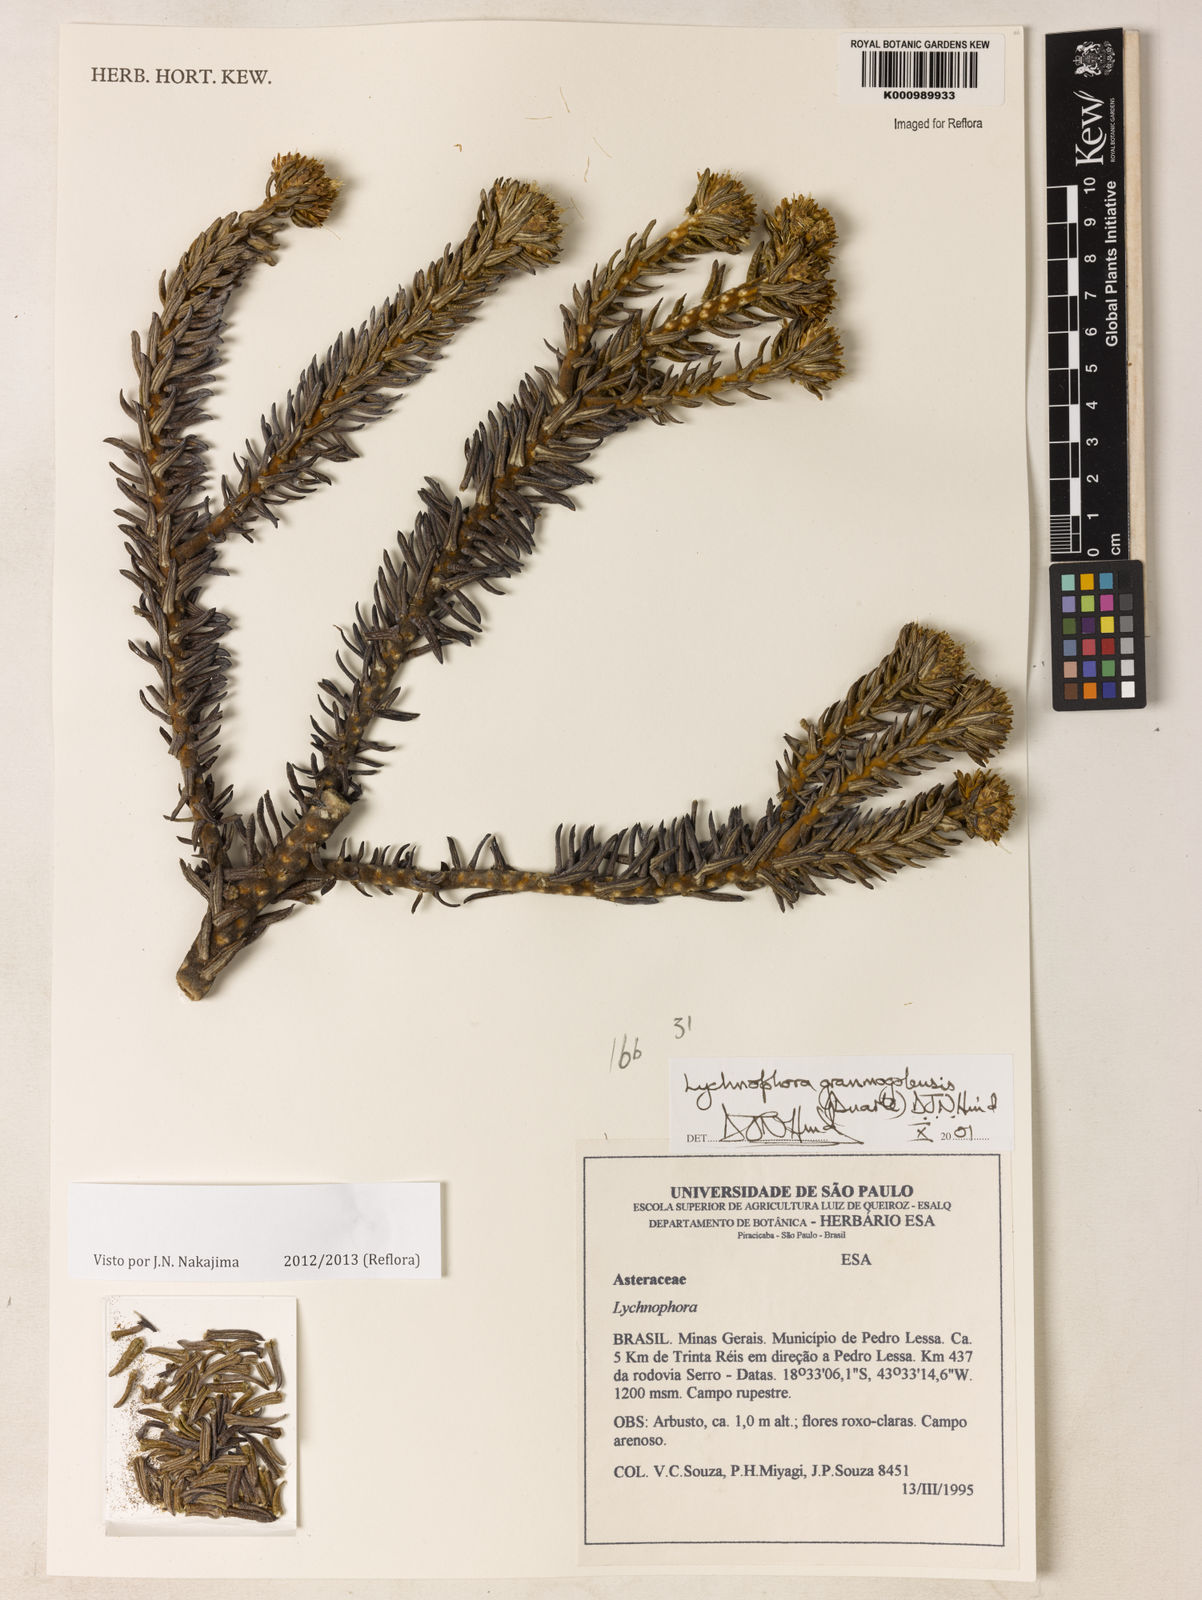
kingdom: Plantae
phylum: Tracheophyta
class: Magnoliopsida
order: Asterales
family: Asteraceae
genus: Lychnophora
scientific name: Lychnophora granmogolensis
